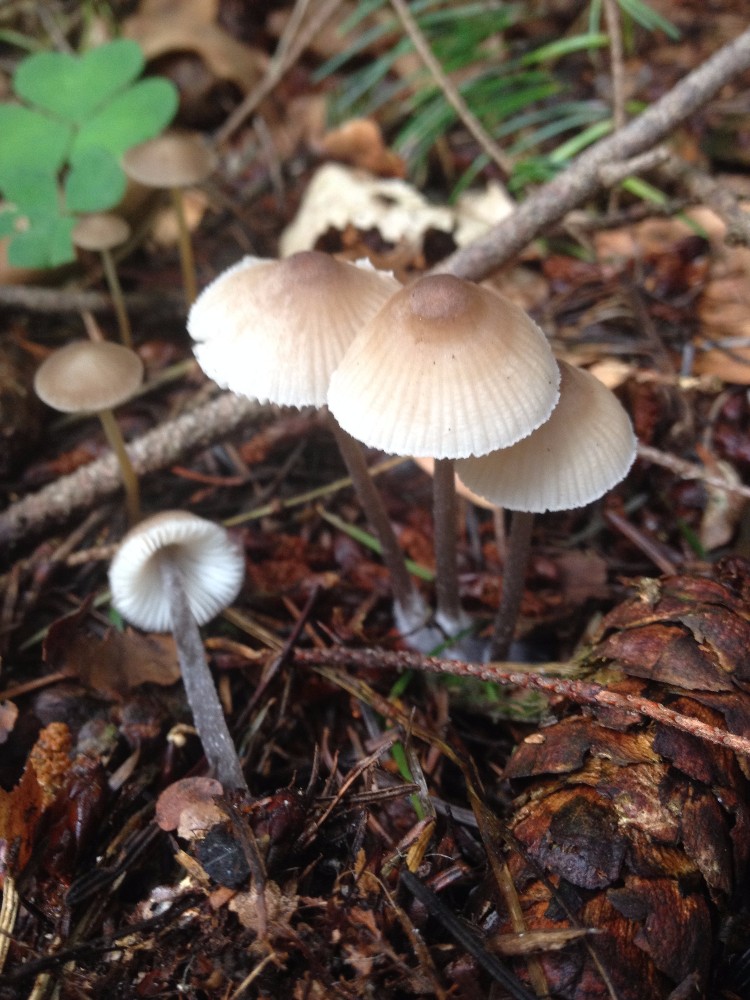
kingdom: Fungi
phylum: Basidiomycota
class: Agaricomycetes
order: Agaricales
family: Mycenaceae
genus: Mycena
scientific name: Mycena zephirus
